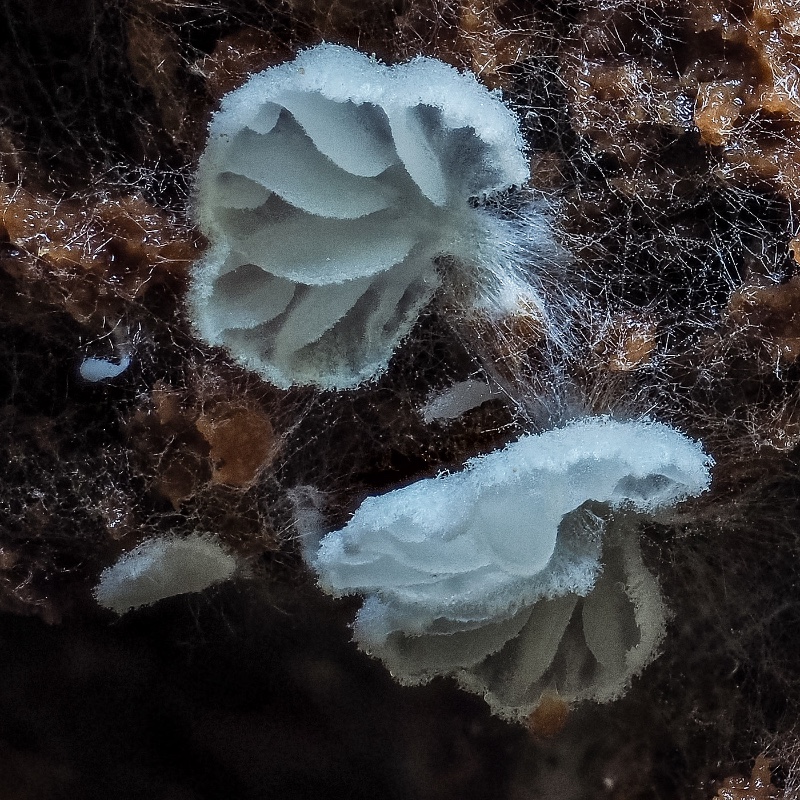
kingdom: Fungi
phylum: Basidiomycota
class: Agaricomycetes
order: Agaricales
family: Entolomataceae
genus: Clitopilus
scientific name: Clitopilus hobsonii
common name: Miller's oysterling
